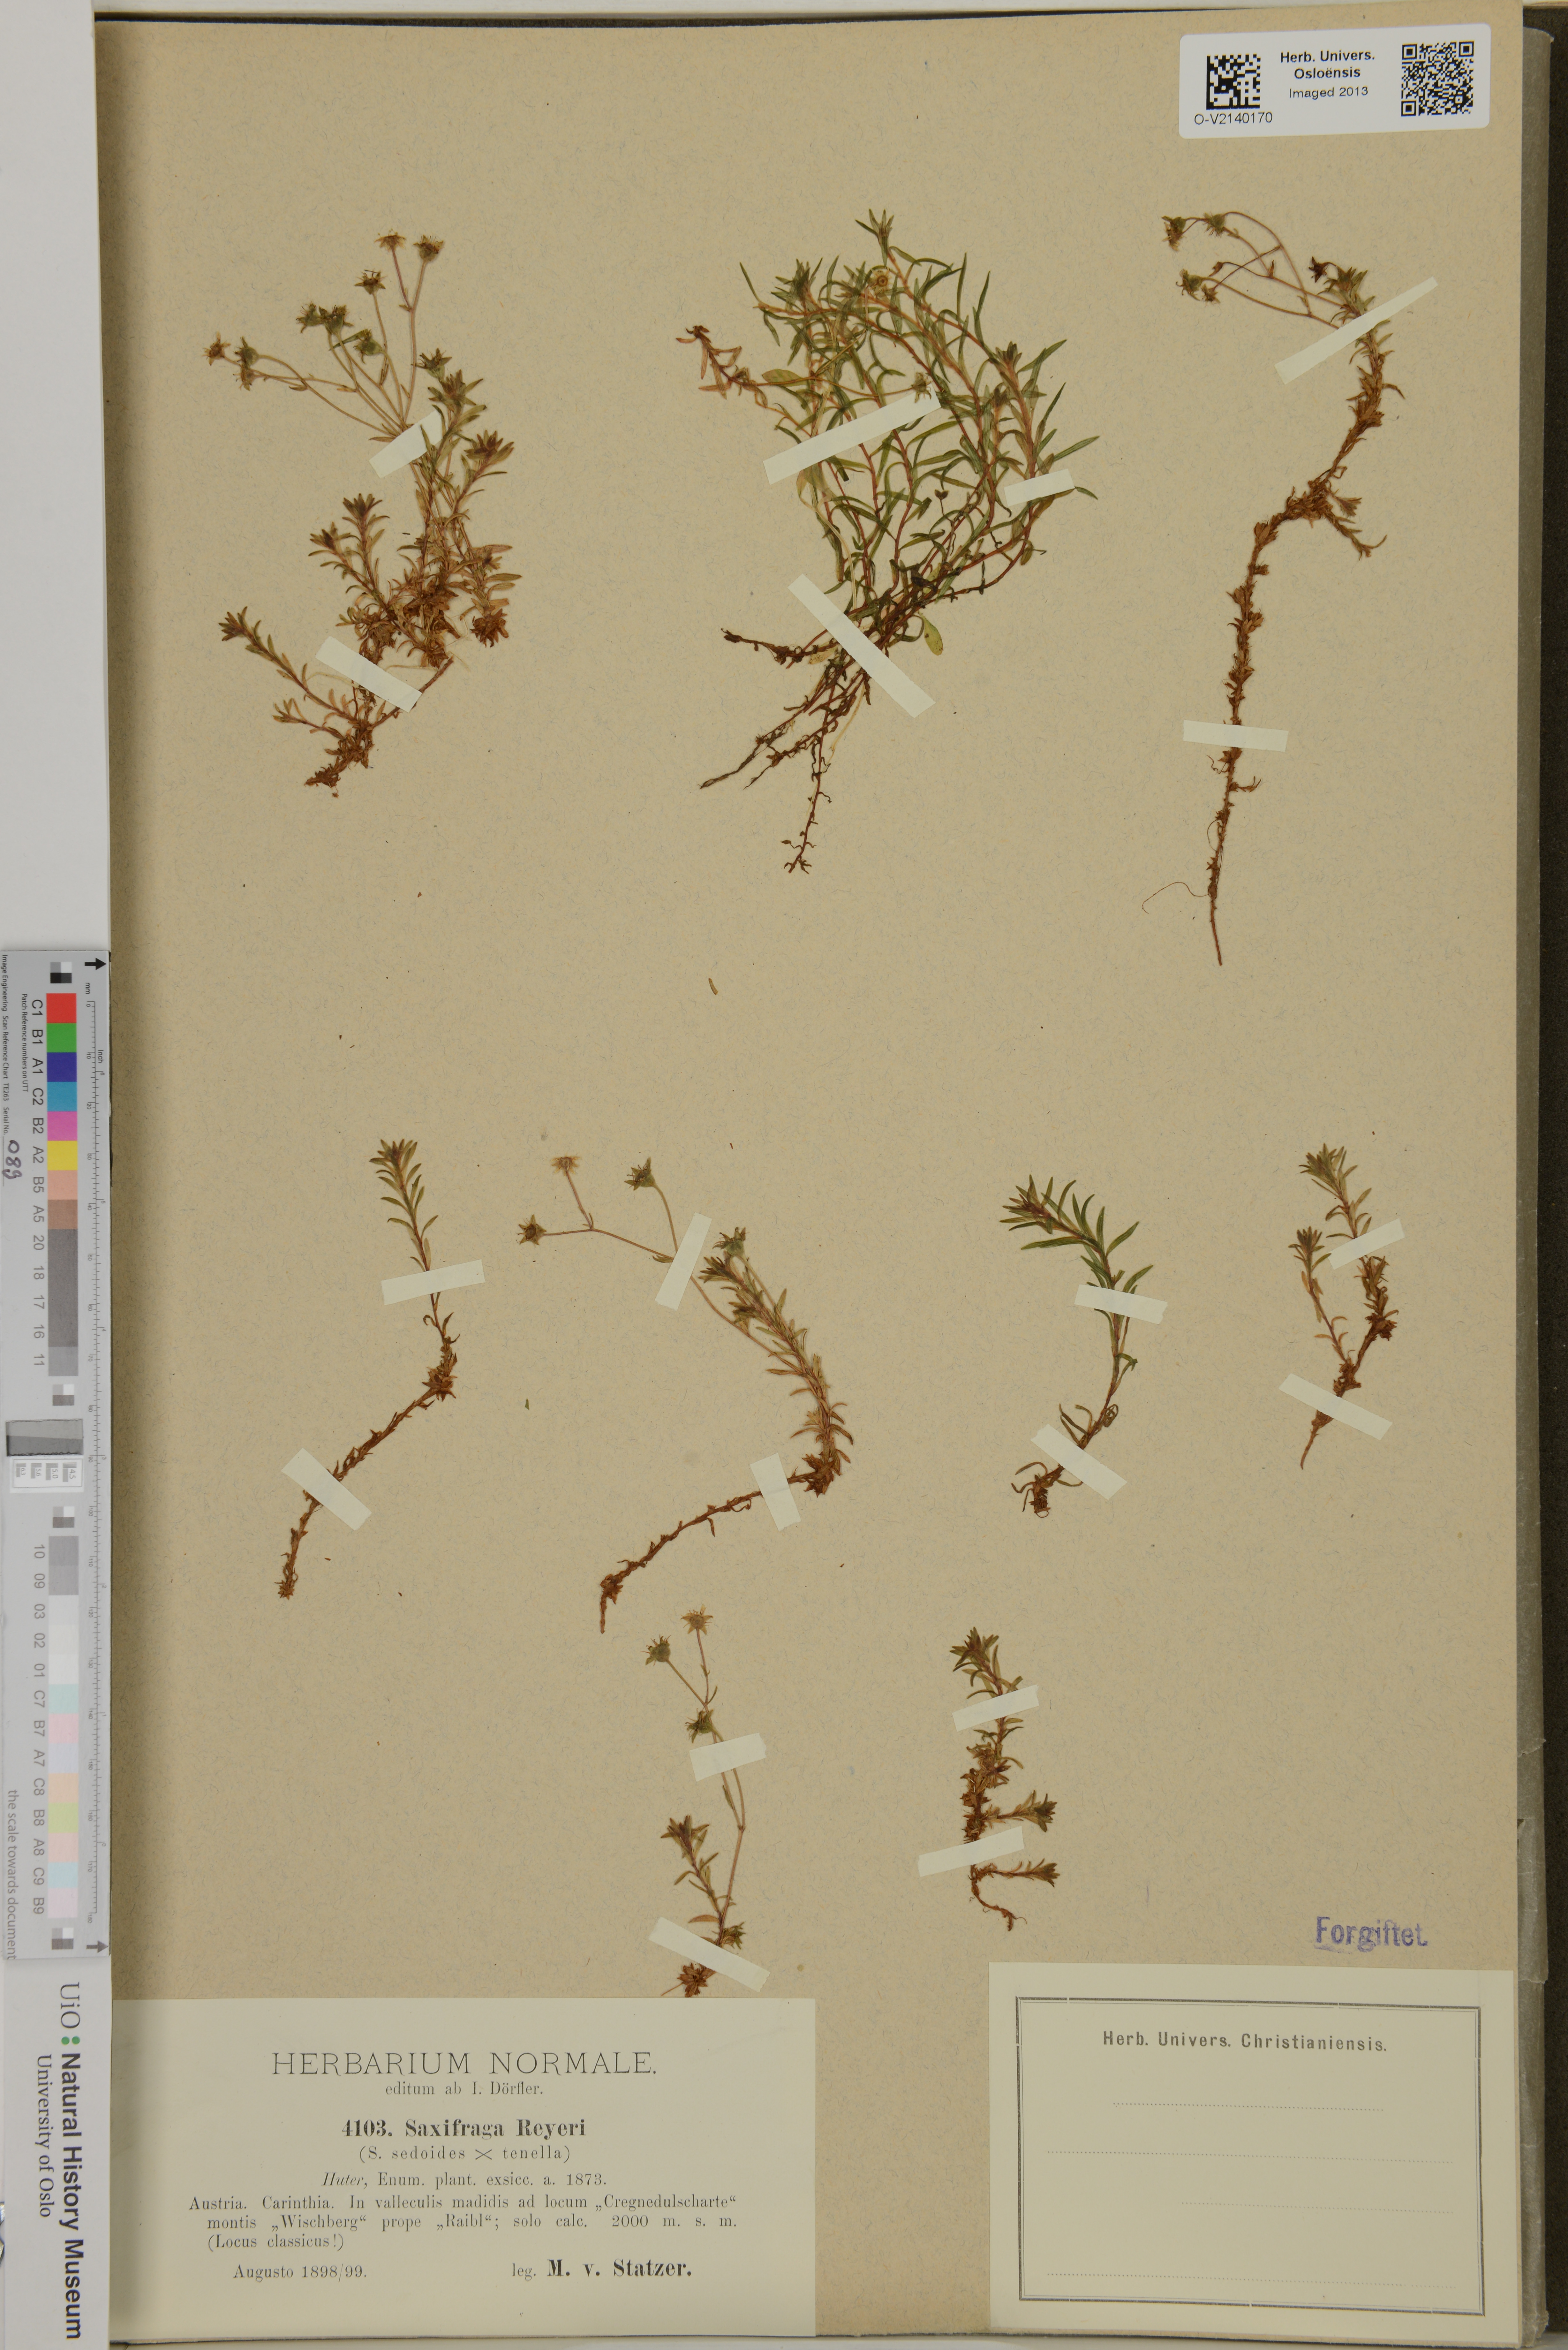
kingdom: Plantae
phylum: Tracheophyta
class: Magnoliopsida
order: Saxifragales
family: Saxifragaceae
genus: Saxifraga
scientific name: Saxifraga
